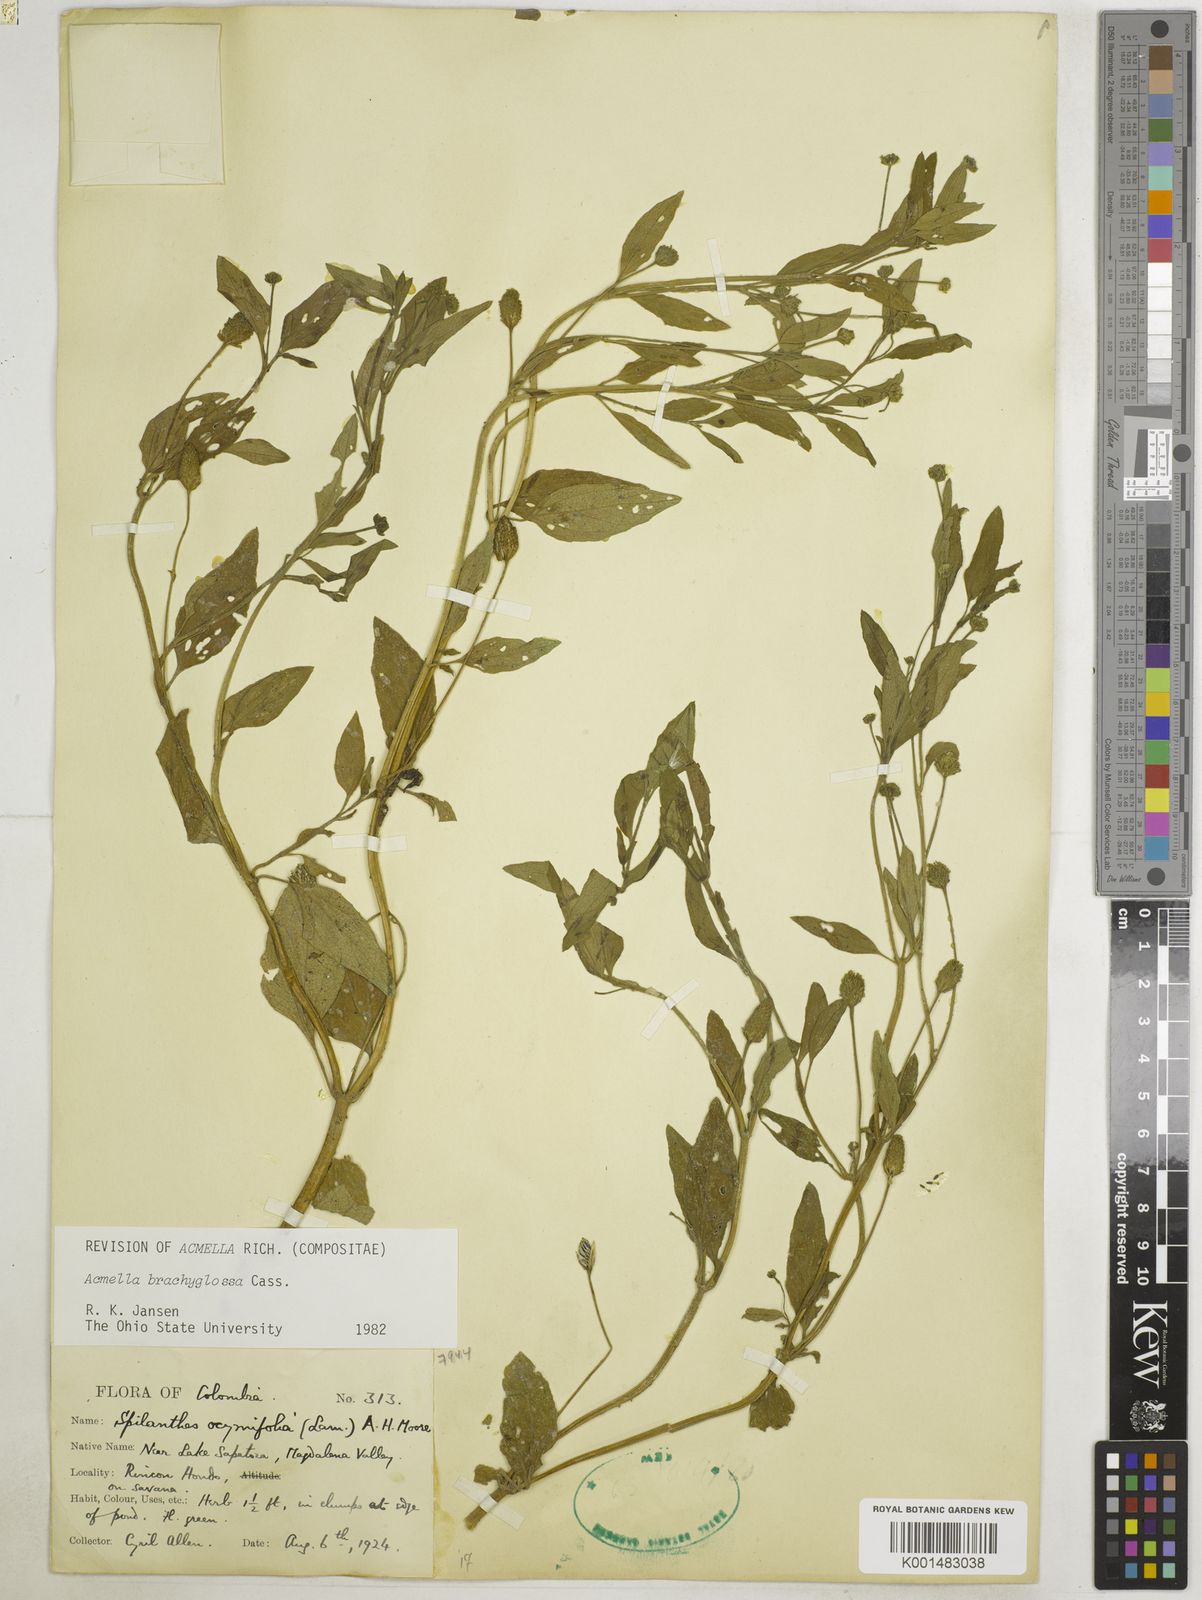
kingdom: Plantae
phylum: Tracheophyta
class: Magnoliopsida
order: Asterales
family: Asteraceae
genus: Acmella
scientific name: Acmella brachyglossa
